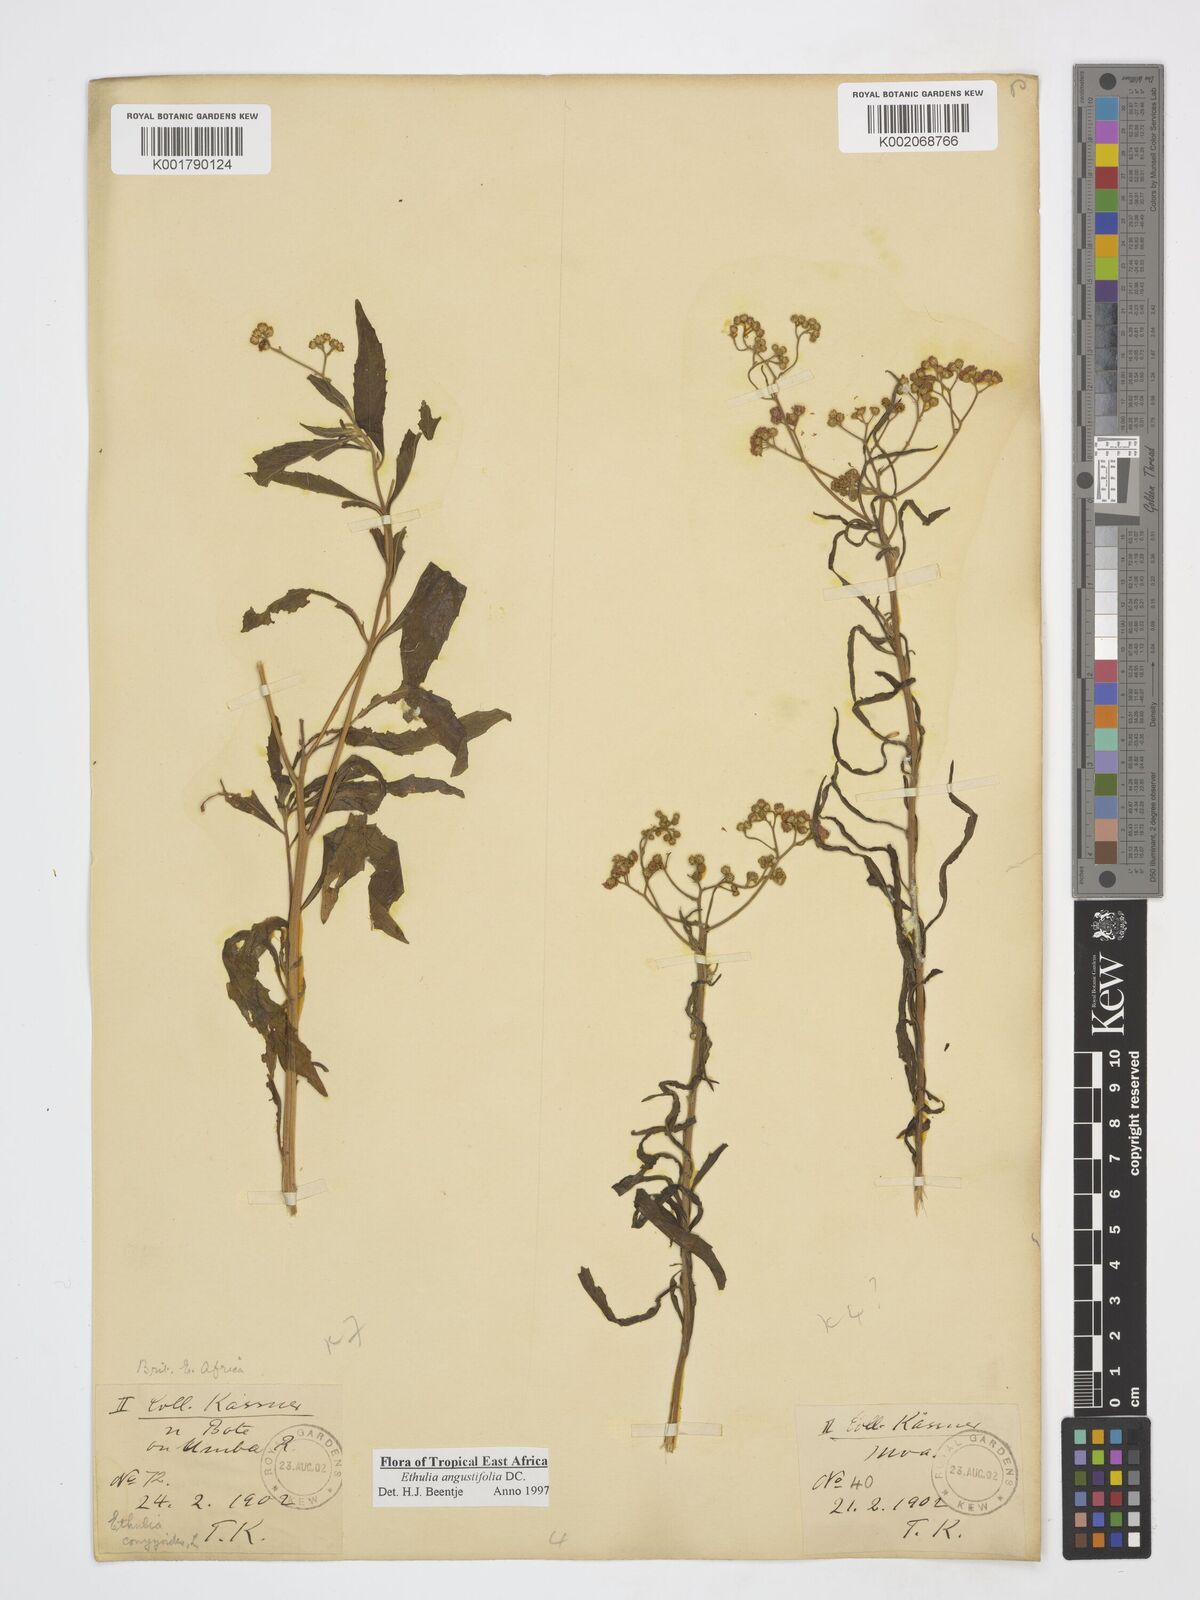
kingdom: Plantae
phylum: Tracheophyta
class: Magnoliopsida
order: Asterales
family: Asteraceae
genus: Ethulia
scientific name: Ethulia conyzoides
